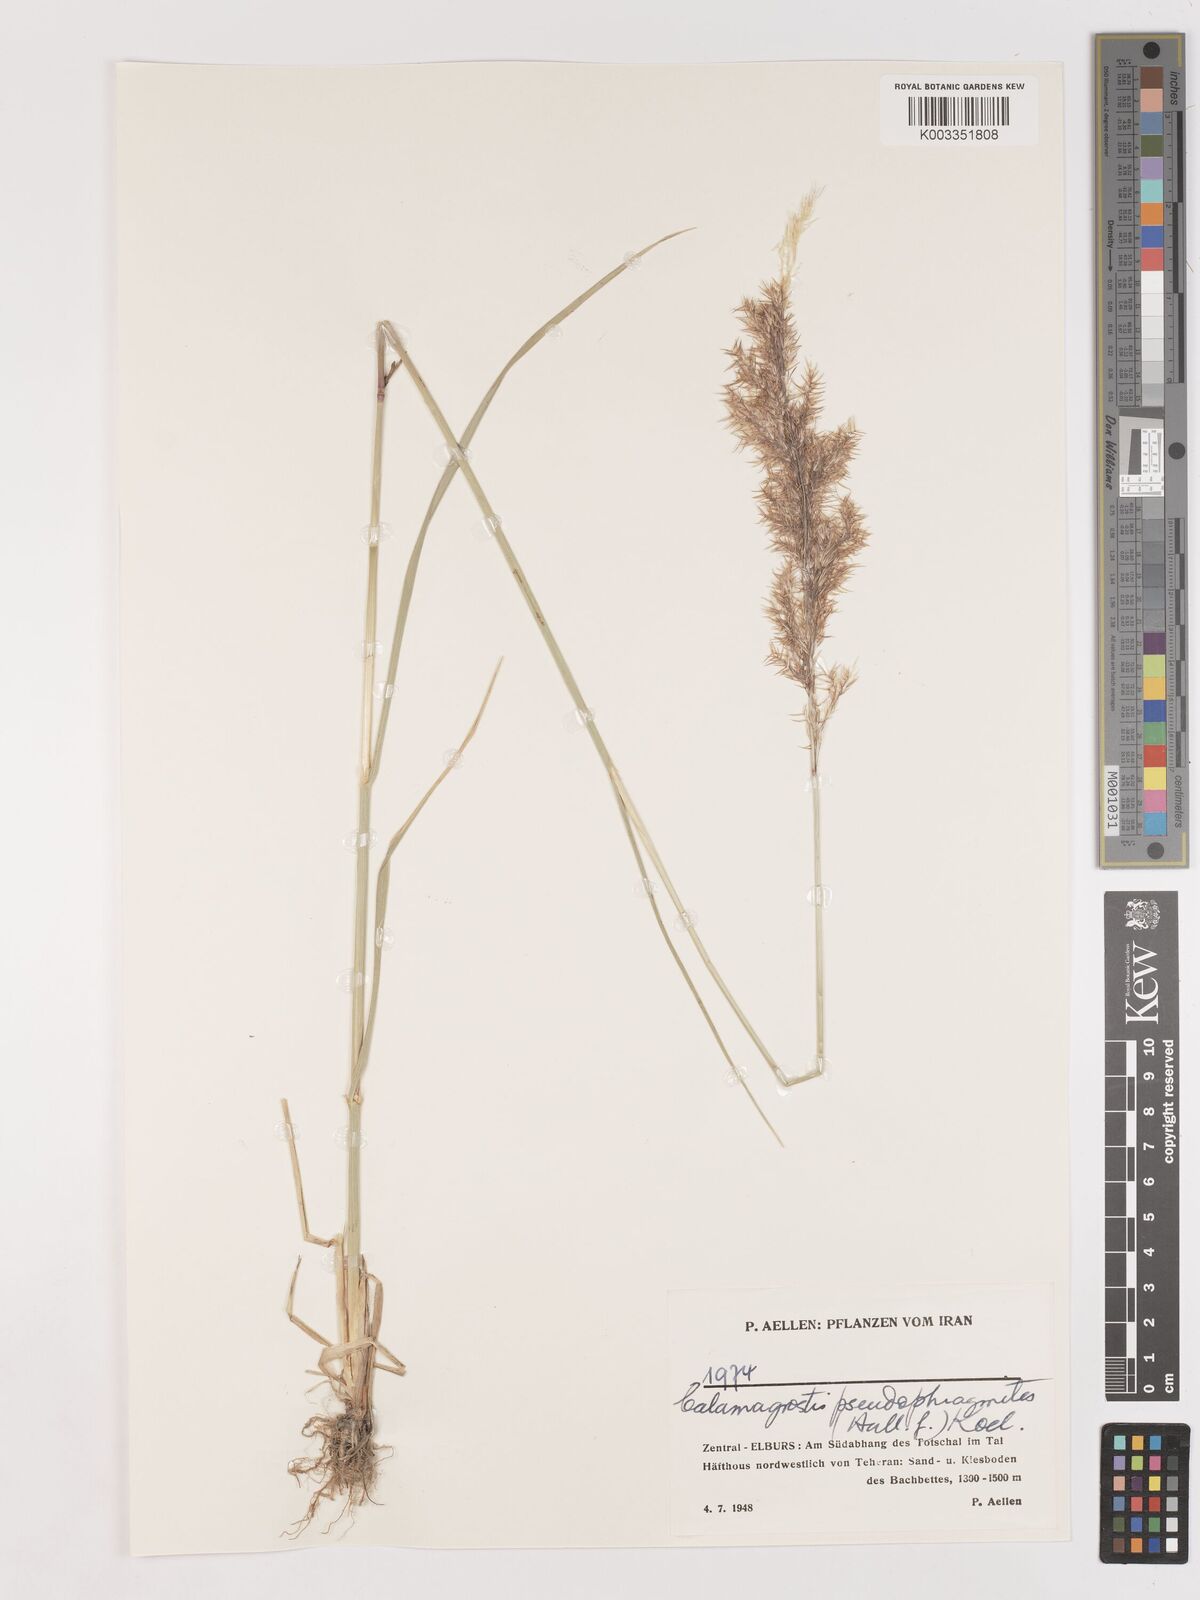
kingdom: Plantae
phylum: Tracheophyta
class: Liliopsida
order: Poales
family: Poaceae
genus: Calamagrostis
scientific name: Calamagrostis pseudophragmites
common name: Coastal small-reed
